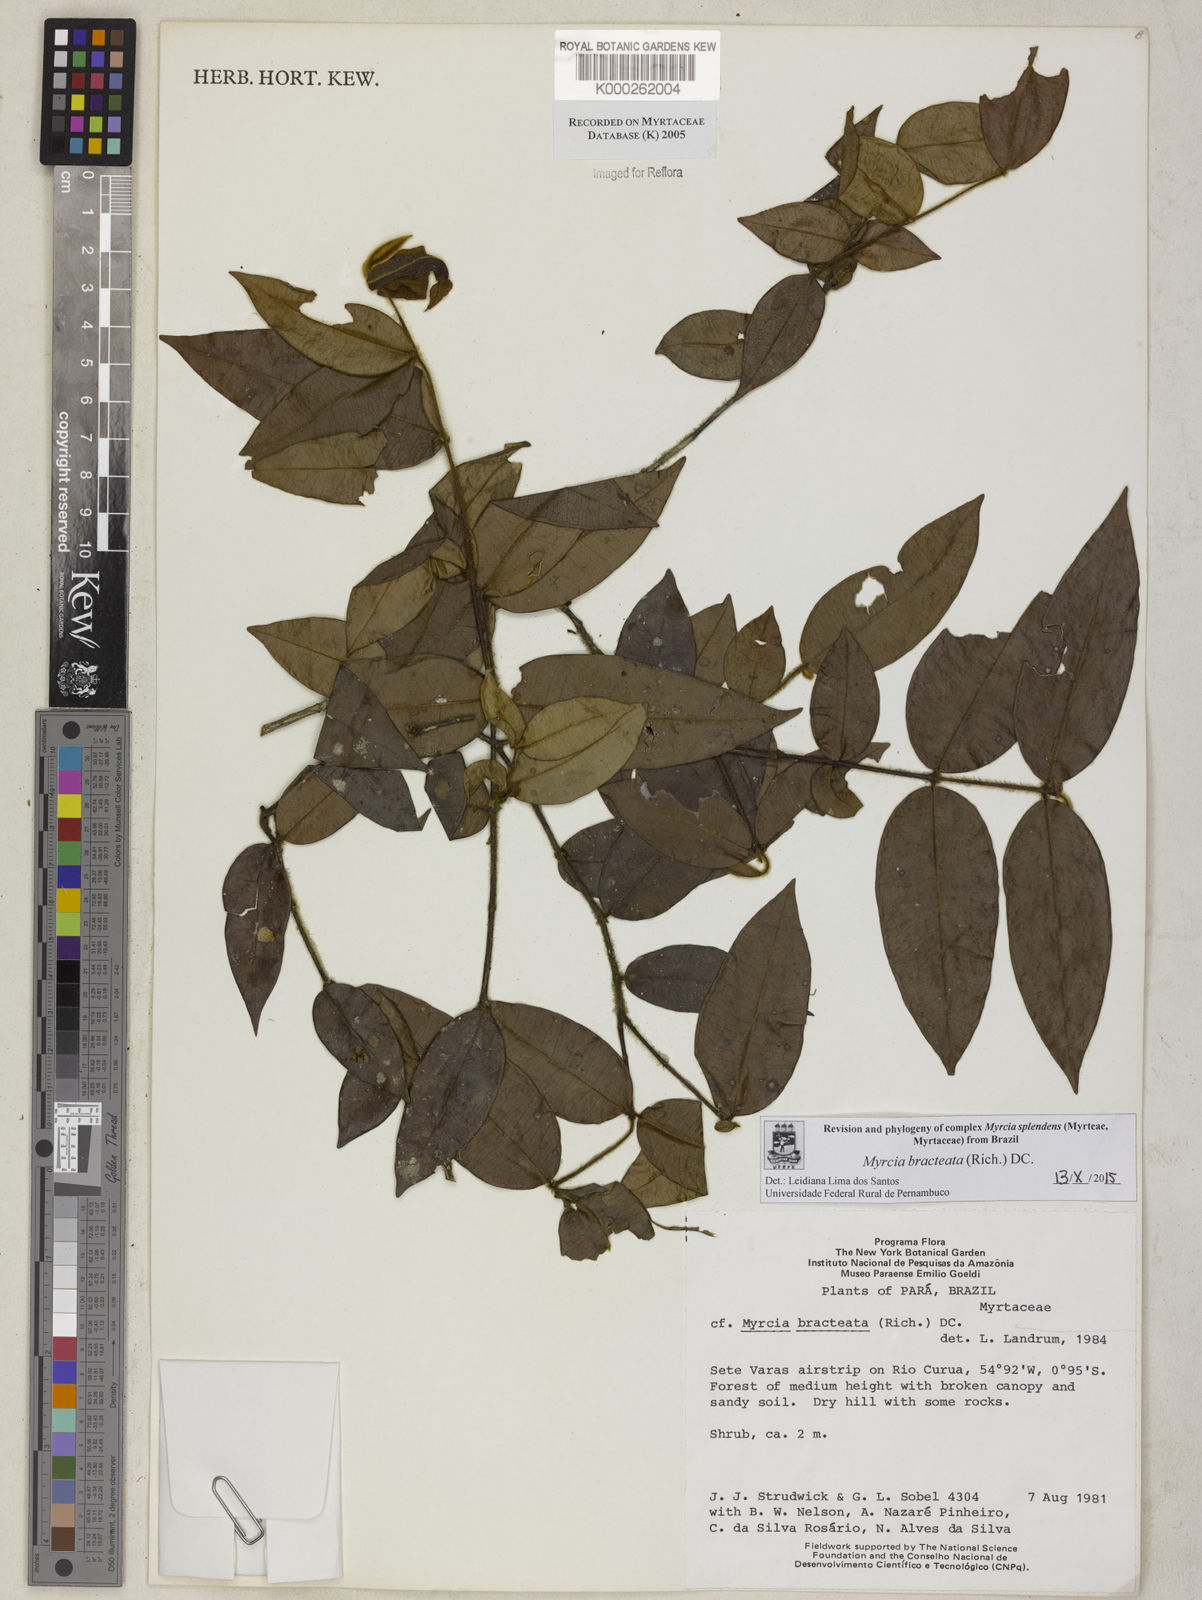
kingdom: Plantae
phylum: Tracheophyta
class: Magnoliopsida
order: Myrtales
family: Myrtaceae
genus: Myrcia
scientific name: Myrcia bracteata
